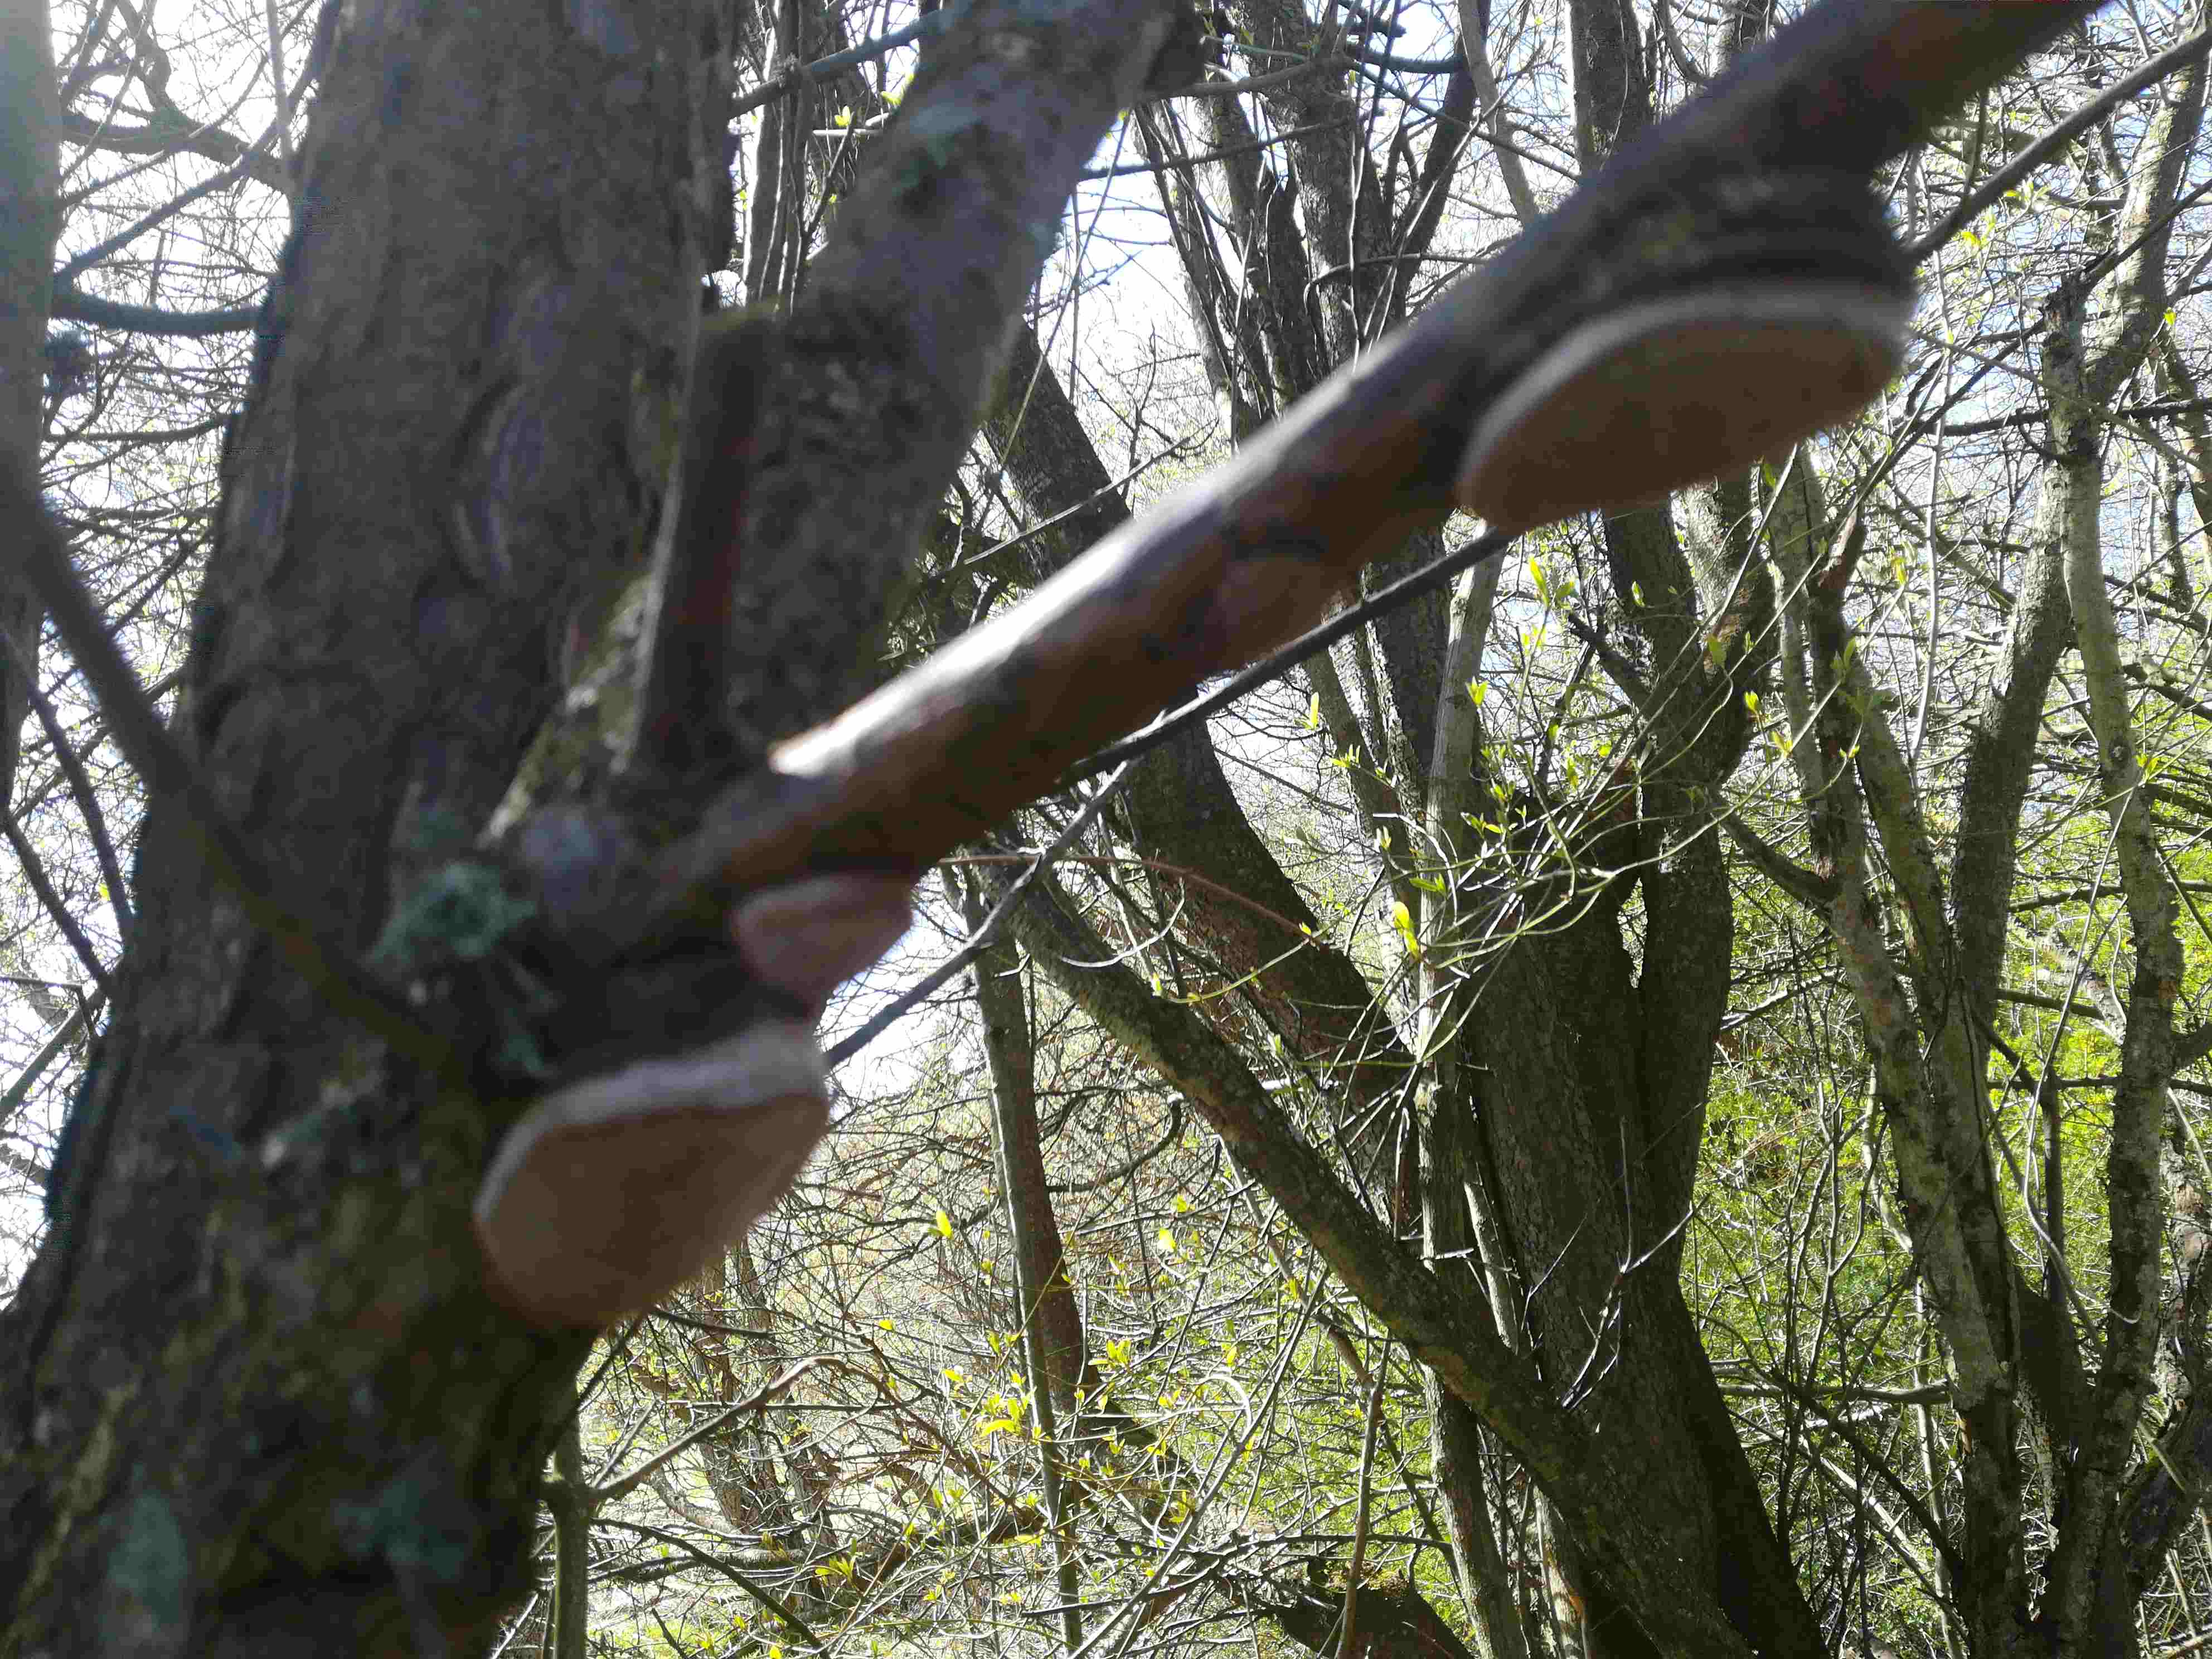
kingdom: Fungi
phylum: Basidiomycota
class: Agaricomycetes
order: Hymenochaetales
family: Hymenochaetaceae
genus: Phellinus
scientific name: Phellinus pomaceus
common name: blomme-ildporesvamp
